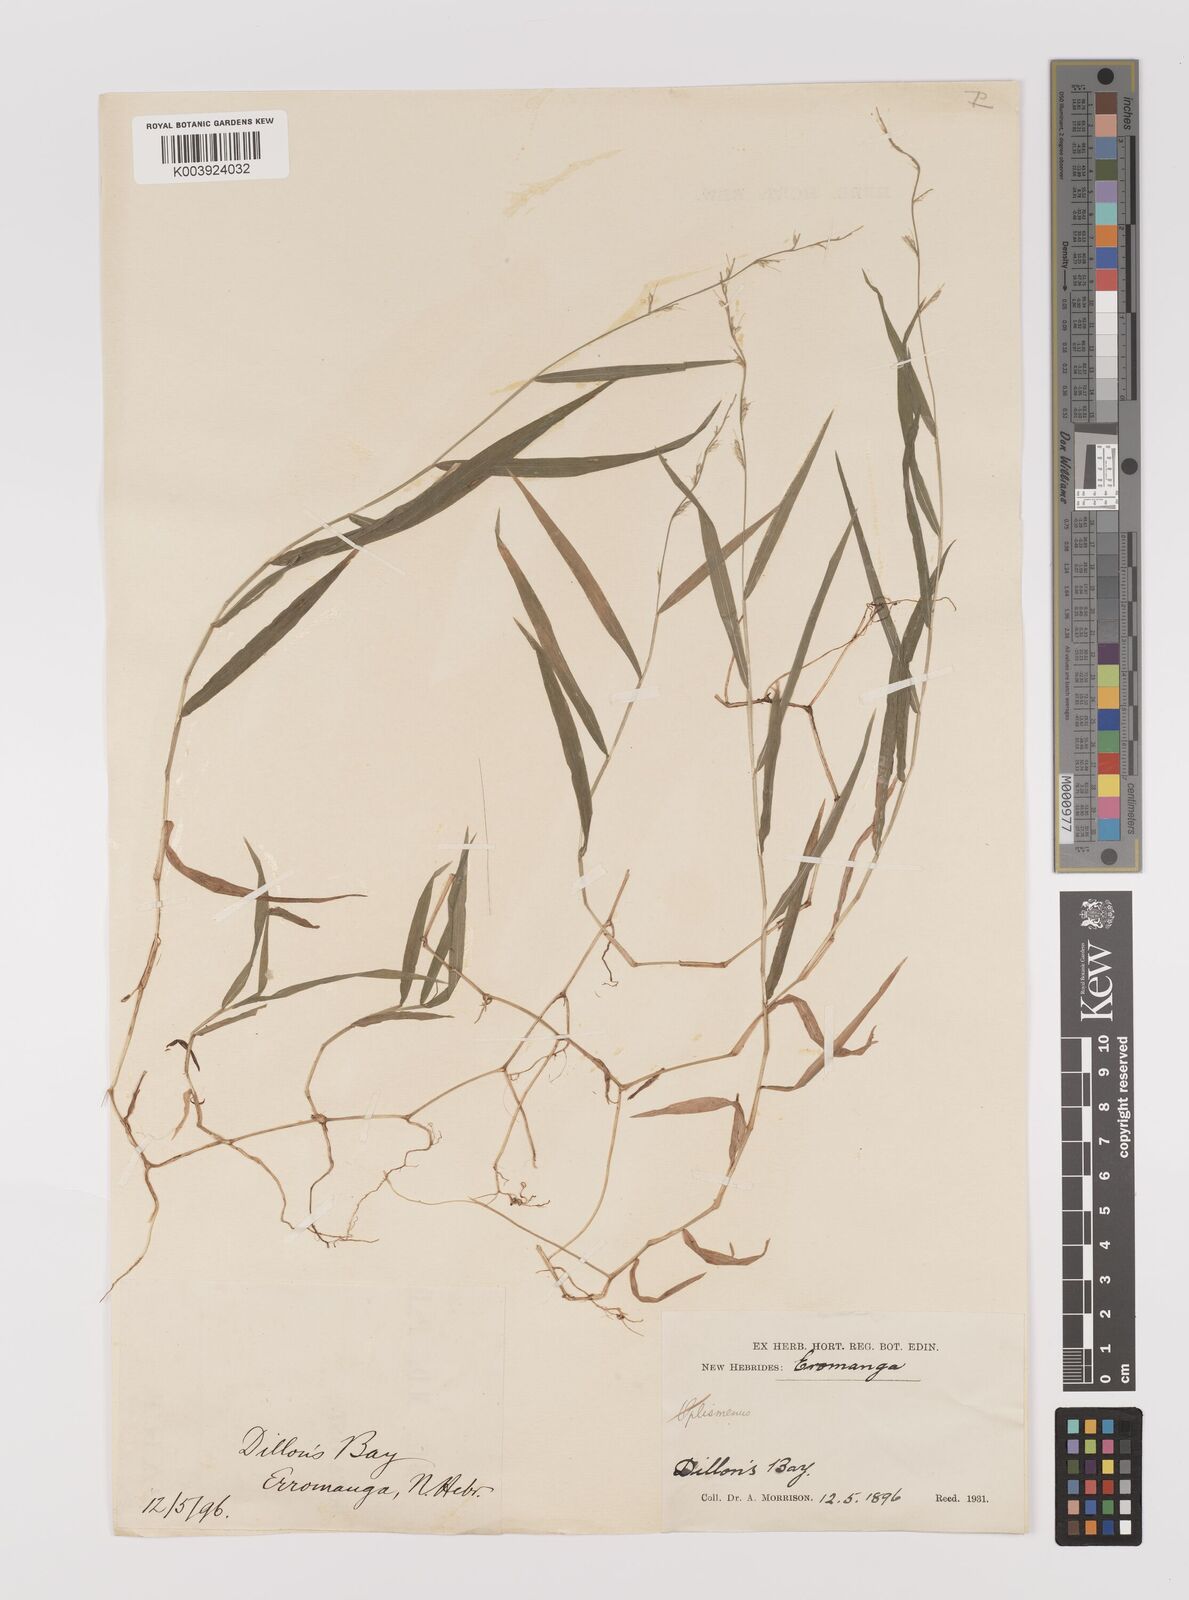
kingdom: Plantae
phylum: Tracheophyta
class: Liliopsida
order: Poales
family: Poaceae
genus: Oplismenus
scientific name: Oplismenus hirtellus
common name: Basketgrass
